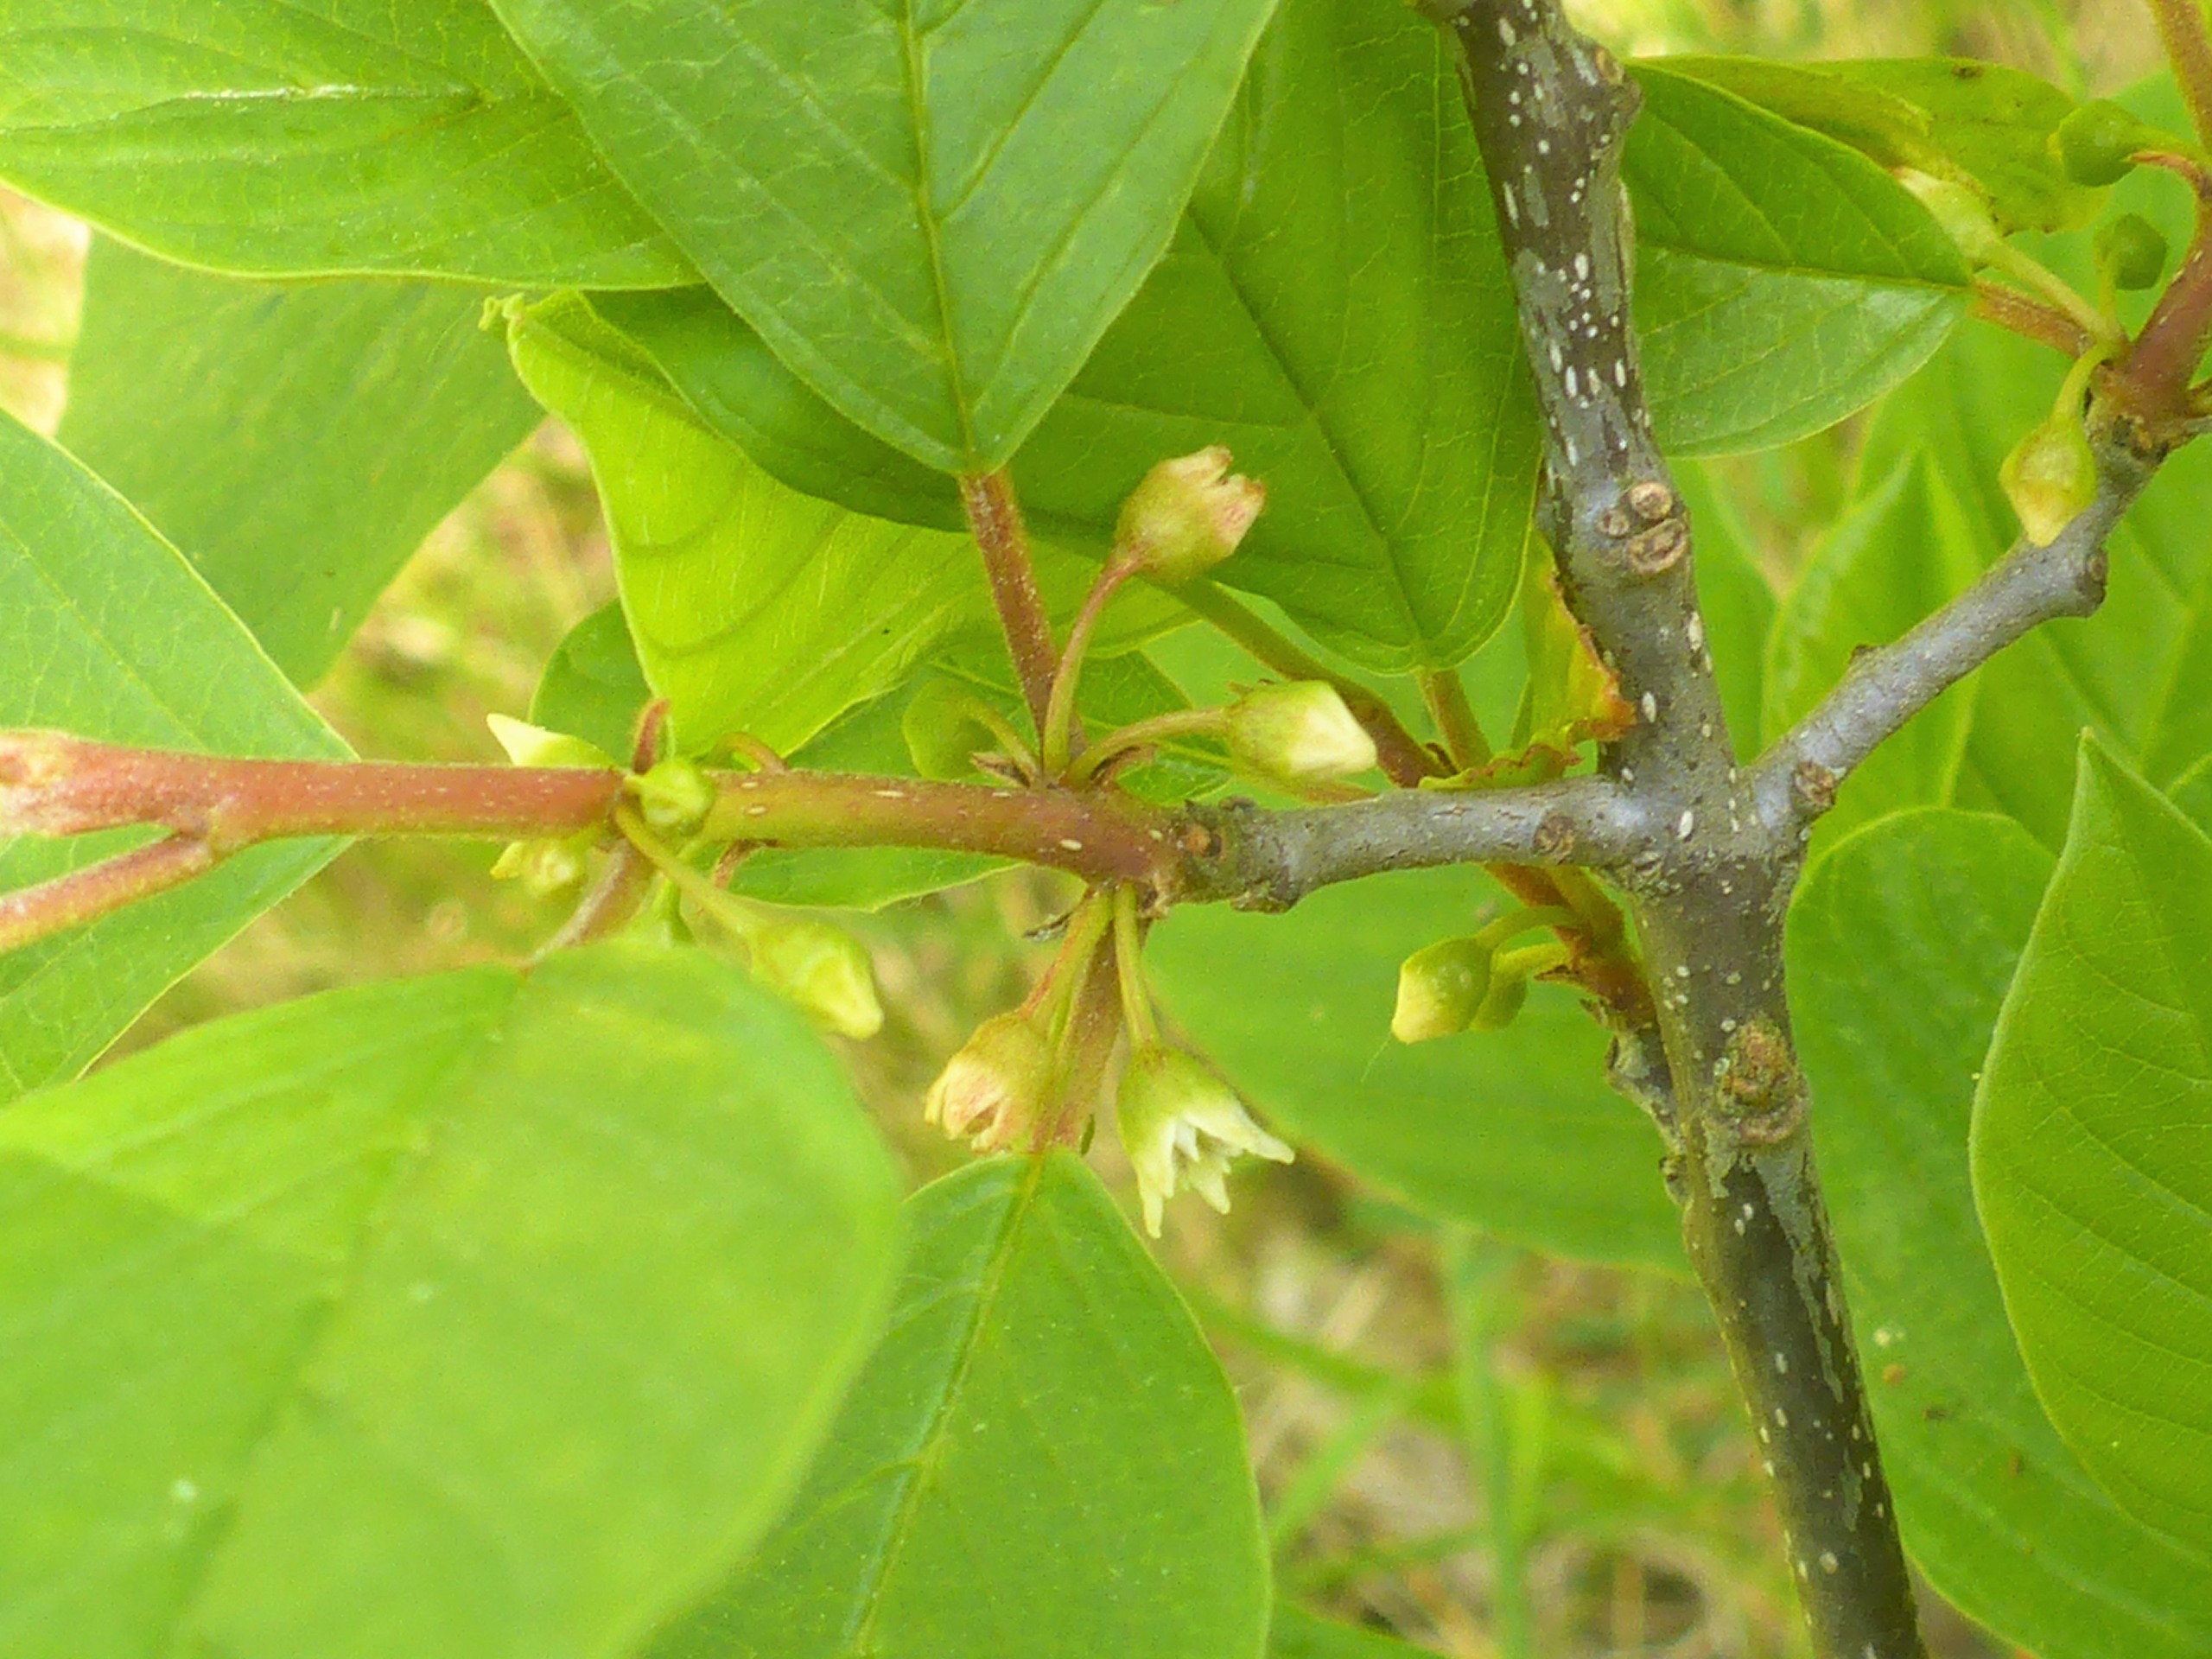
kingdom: Plantae
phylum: Tracheophyta
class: Magnoliopsida
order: Rosales
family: Rhamnaceae
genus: Frangula
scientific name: Frangula alnus
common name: Tørst
